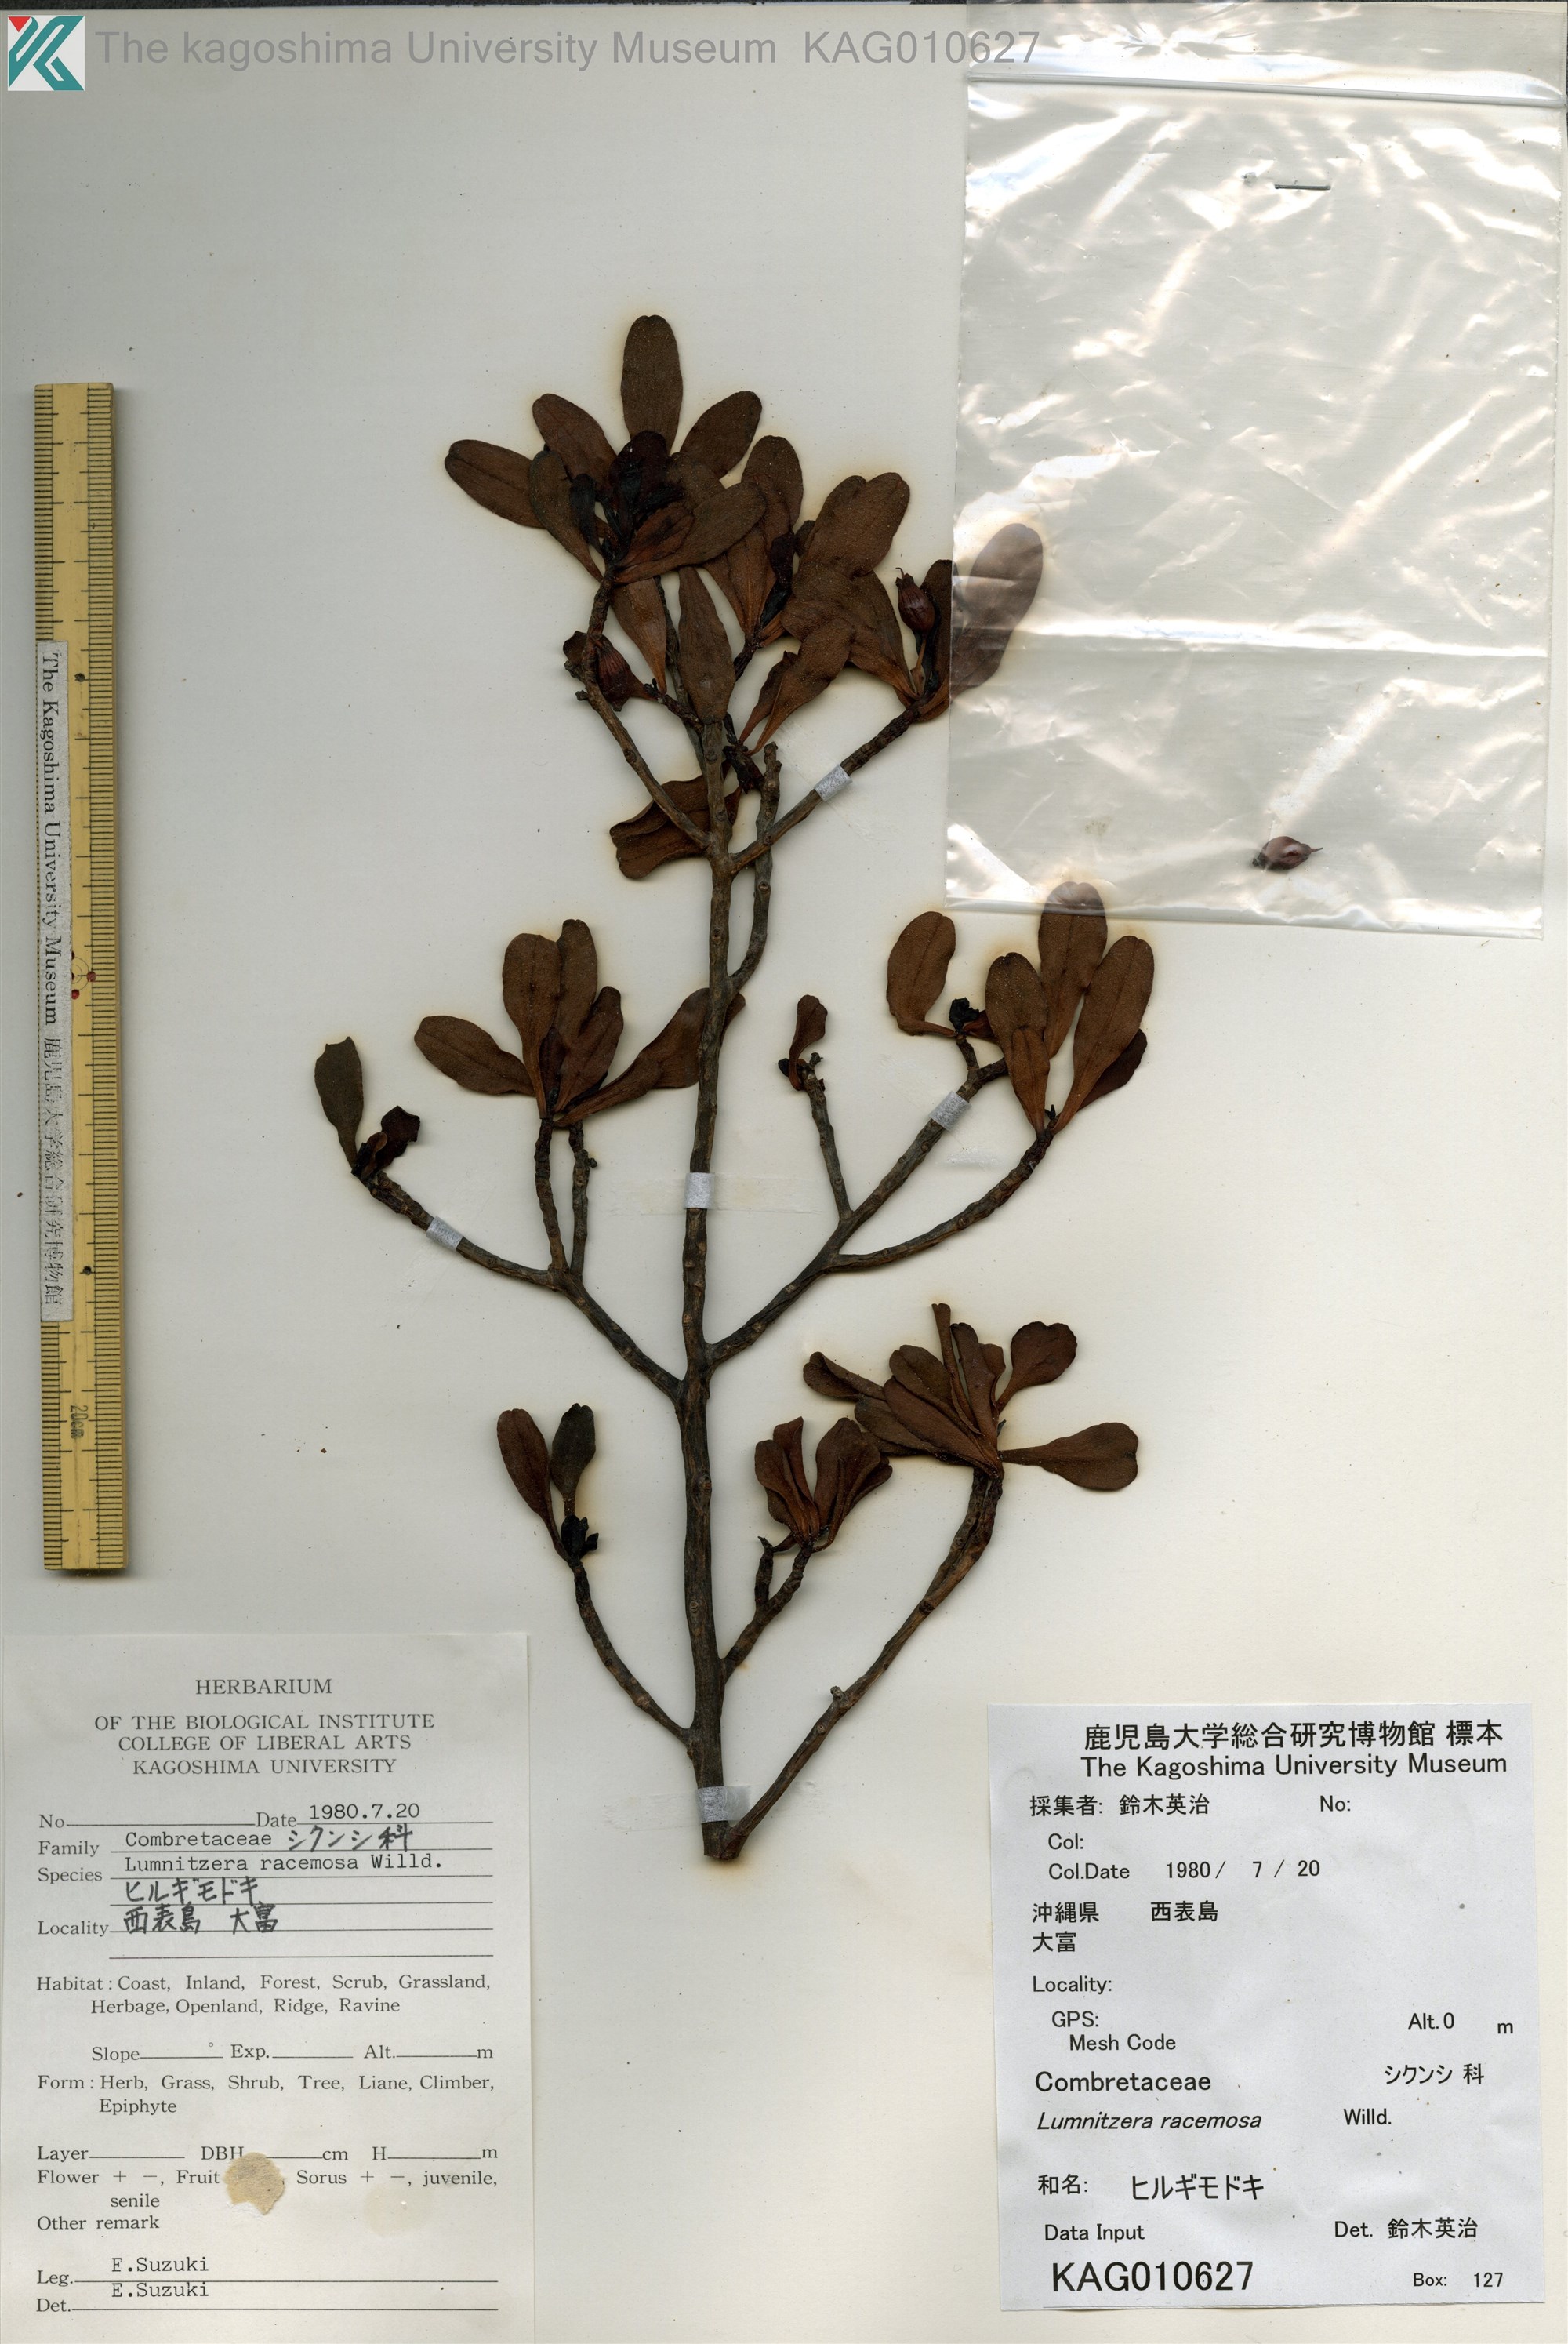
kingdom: Plantae
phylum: Tracheophyta
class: Magnoliopsida
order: Myrtales
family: Combretaceae
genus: Lumnitzera
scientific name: Lumnitzera racemosa
